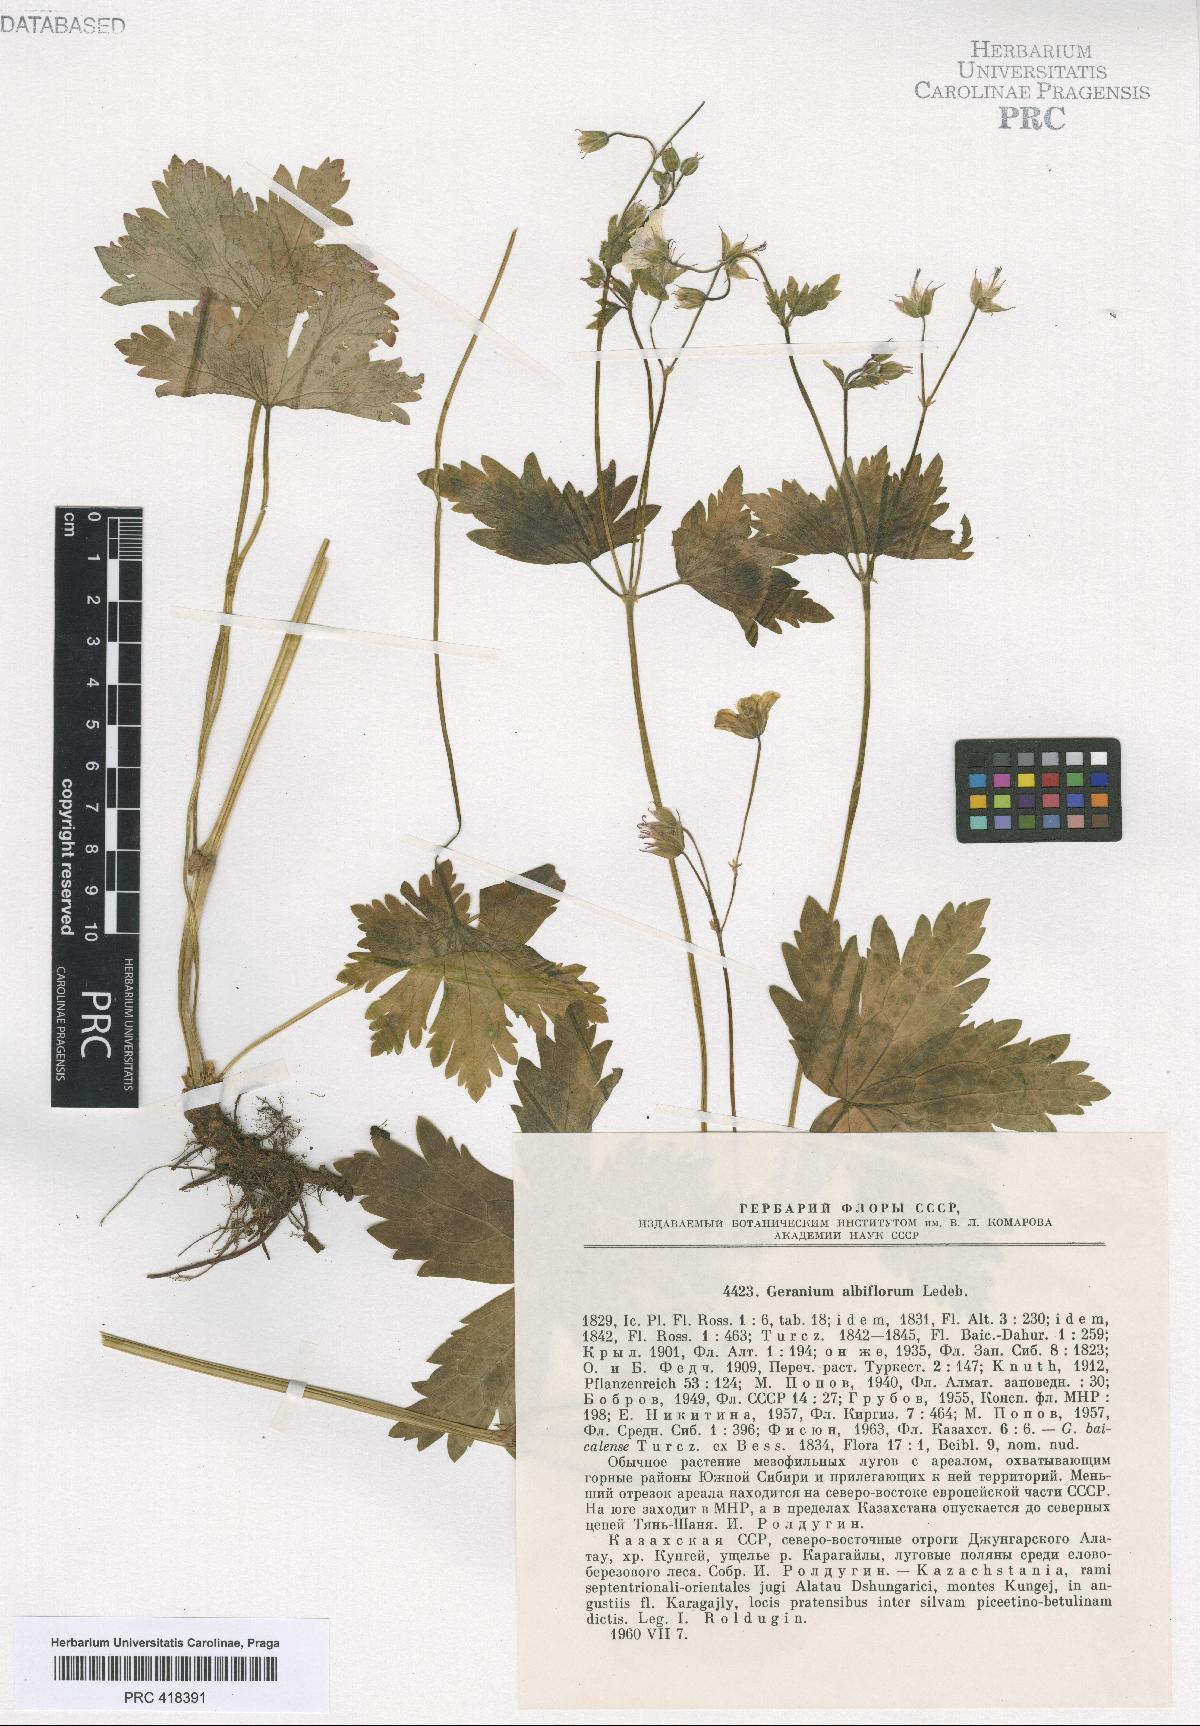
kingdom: Plantae
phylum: Tracheophyta
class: Magnoliopsida
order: Geraniales
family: Geraniaceae
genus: Geranium
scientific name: Geranium albiflorum
